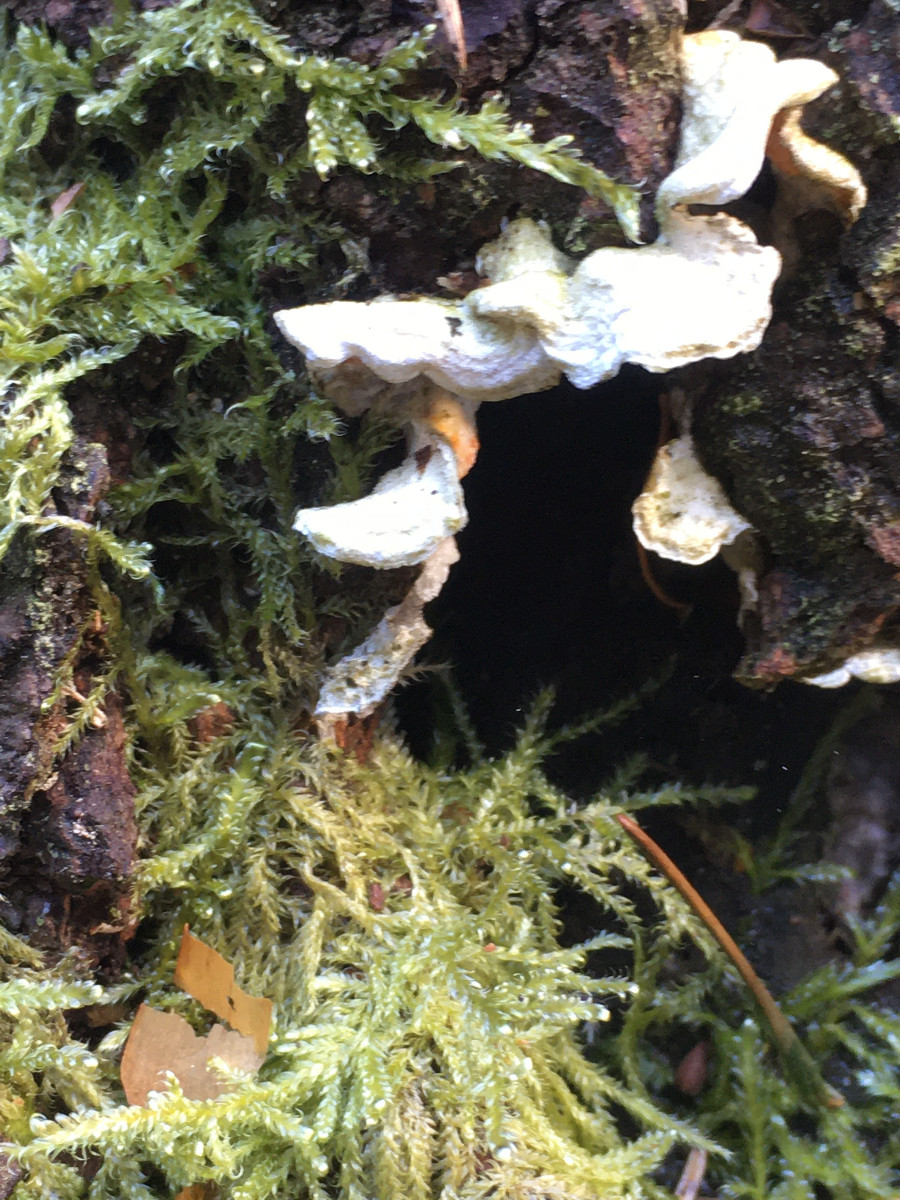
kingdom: Fungi
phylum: Basidiomycota
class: Agaricomycetes
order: Polyporales
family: Incrustoporiaceae
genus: Skeletocutis
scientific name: Skeletocutis amorpha
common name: orange krystalporesvamp
